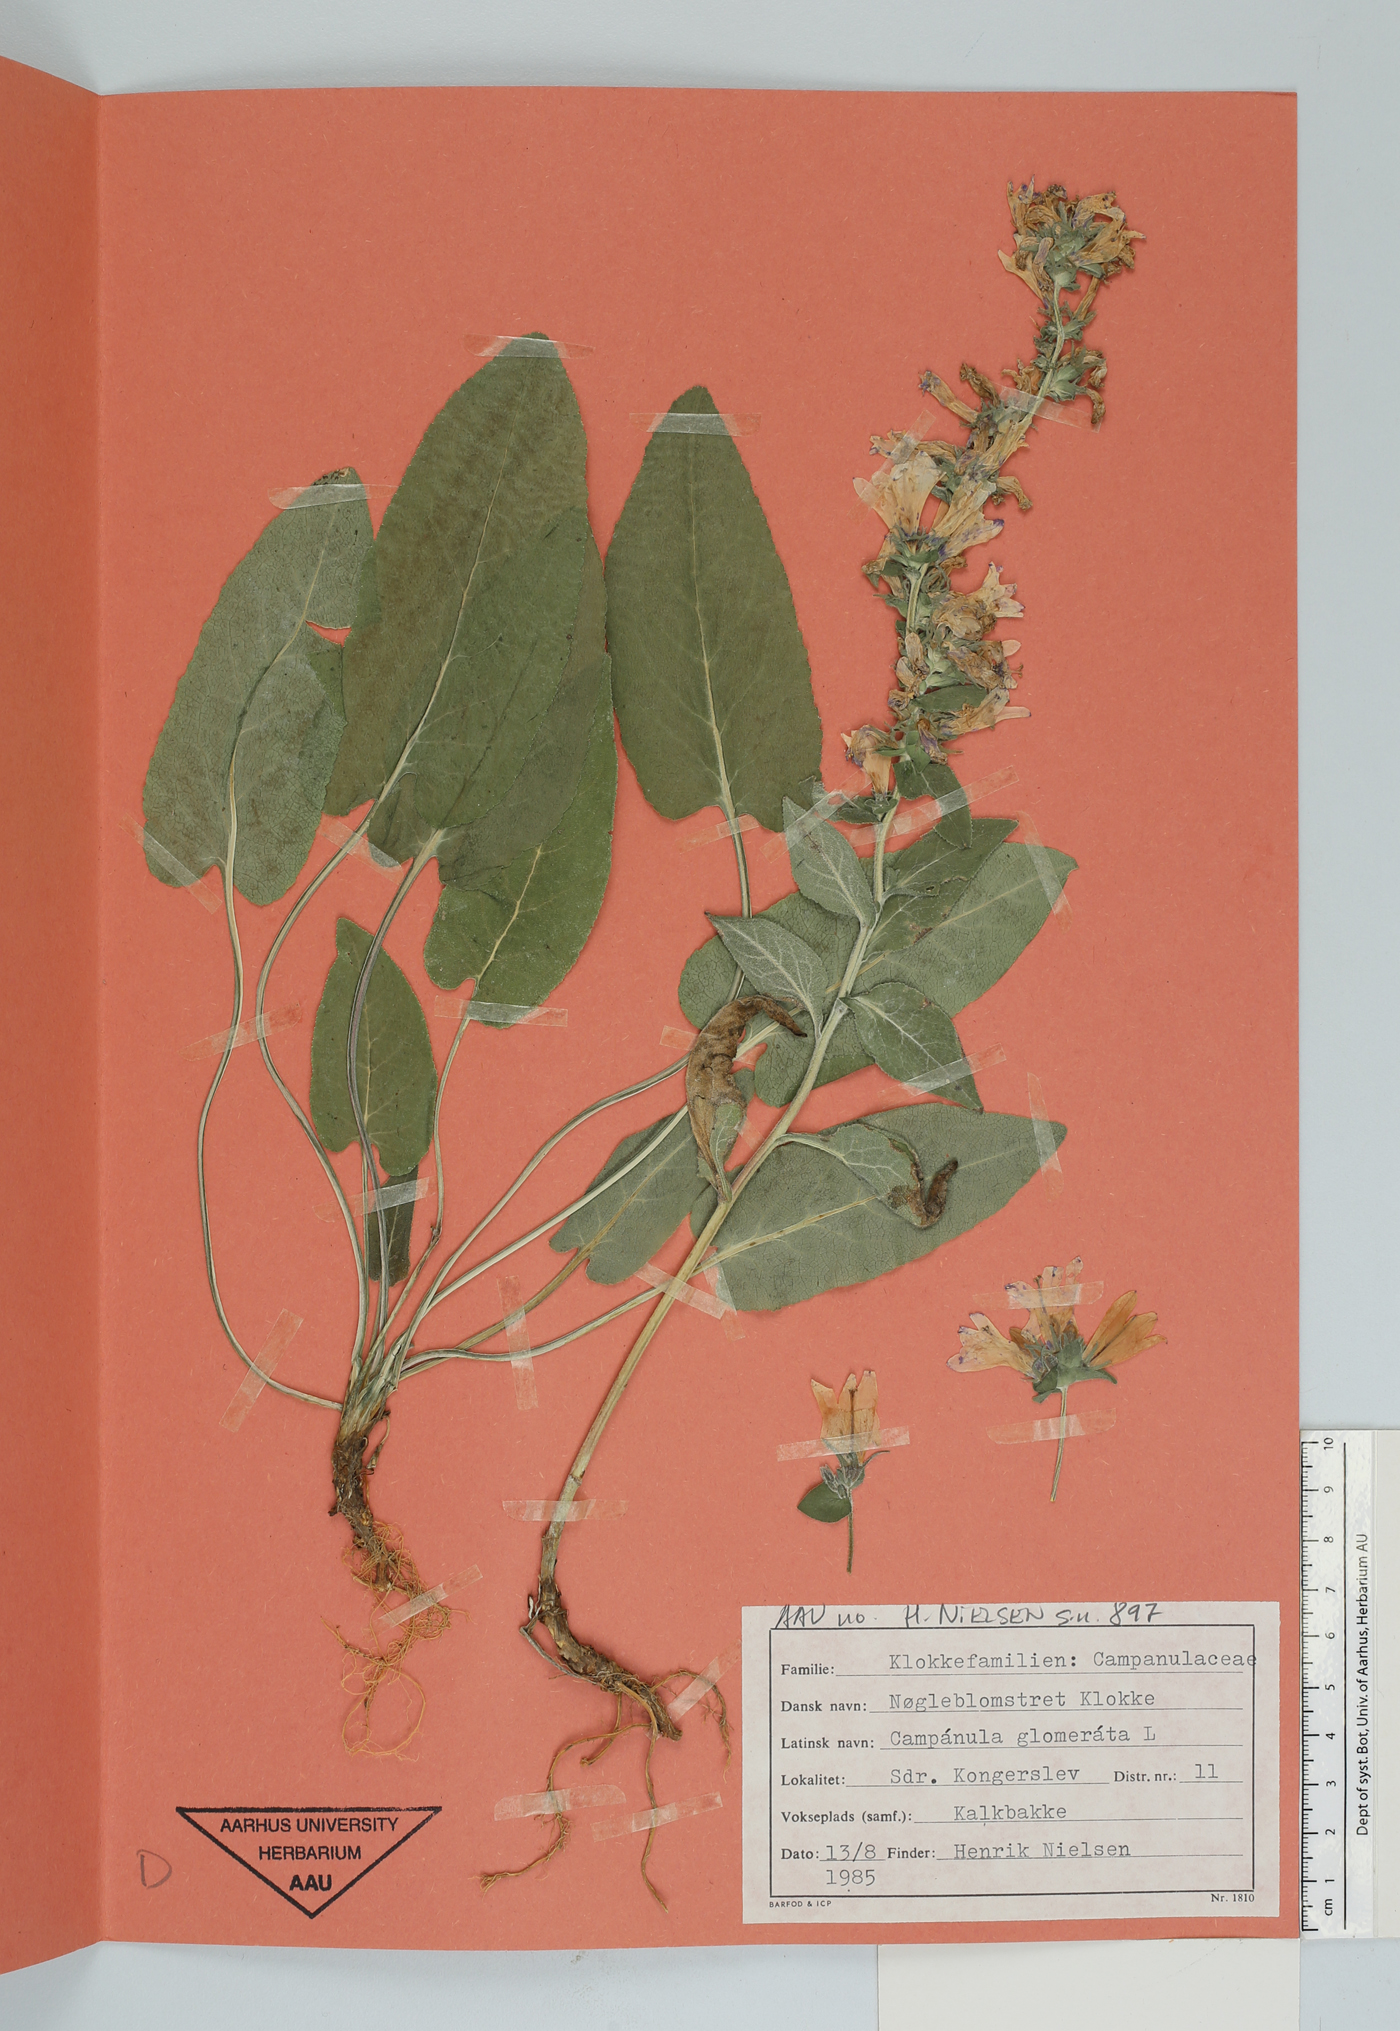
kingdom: Plantae
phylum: Tracheophyta
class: Magnoliopsida
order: Asterales
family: Campanulaceae
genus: Campanula
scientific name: Campanula glomerata
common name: Clustered bellflower
